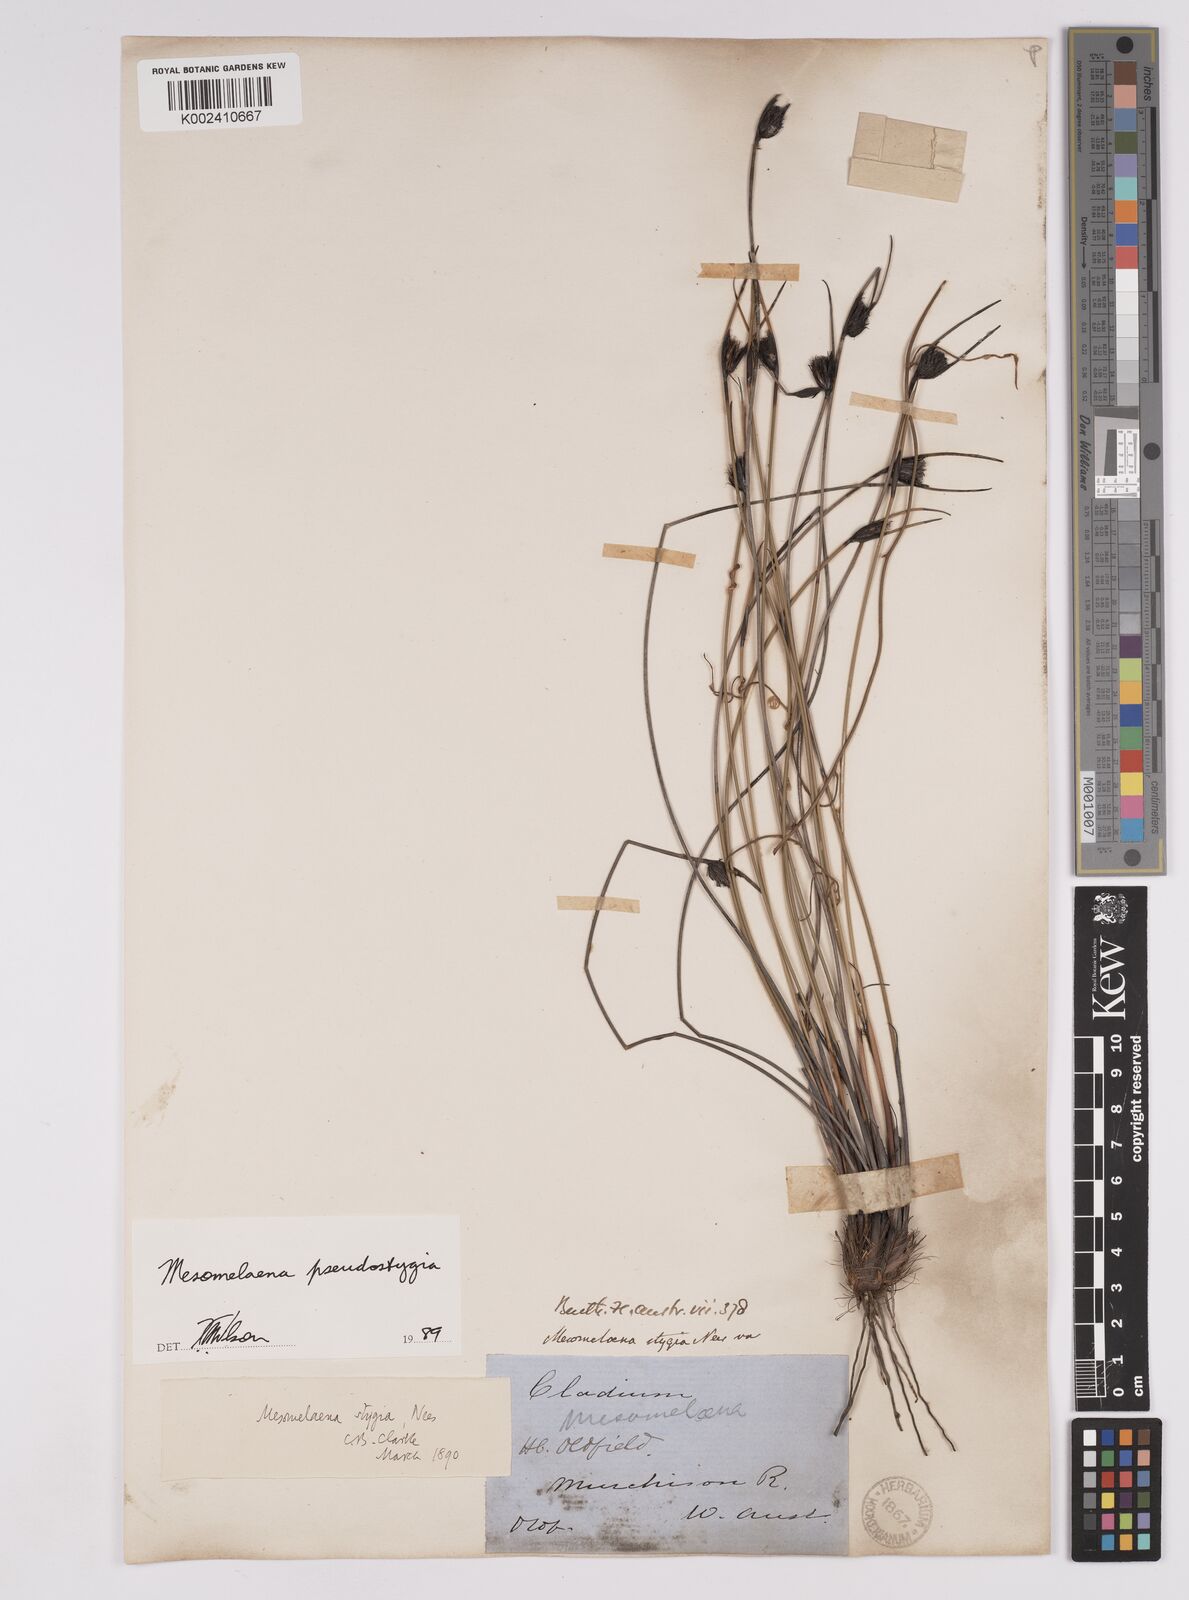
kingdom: Plantae
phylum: Tracheophyta
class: Liliopsida
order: Poales
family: Cyperaceae
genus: Mesomelaena
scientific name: Mesomelaena pseudostygia
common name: Semaphore sedge
